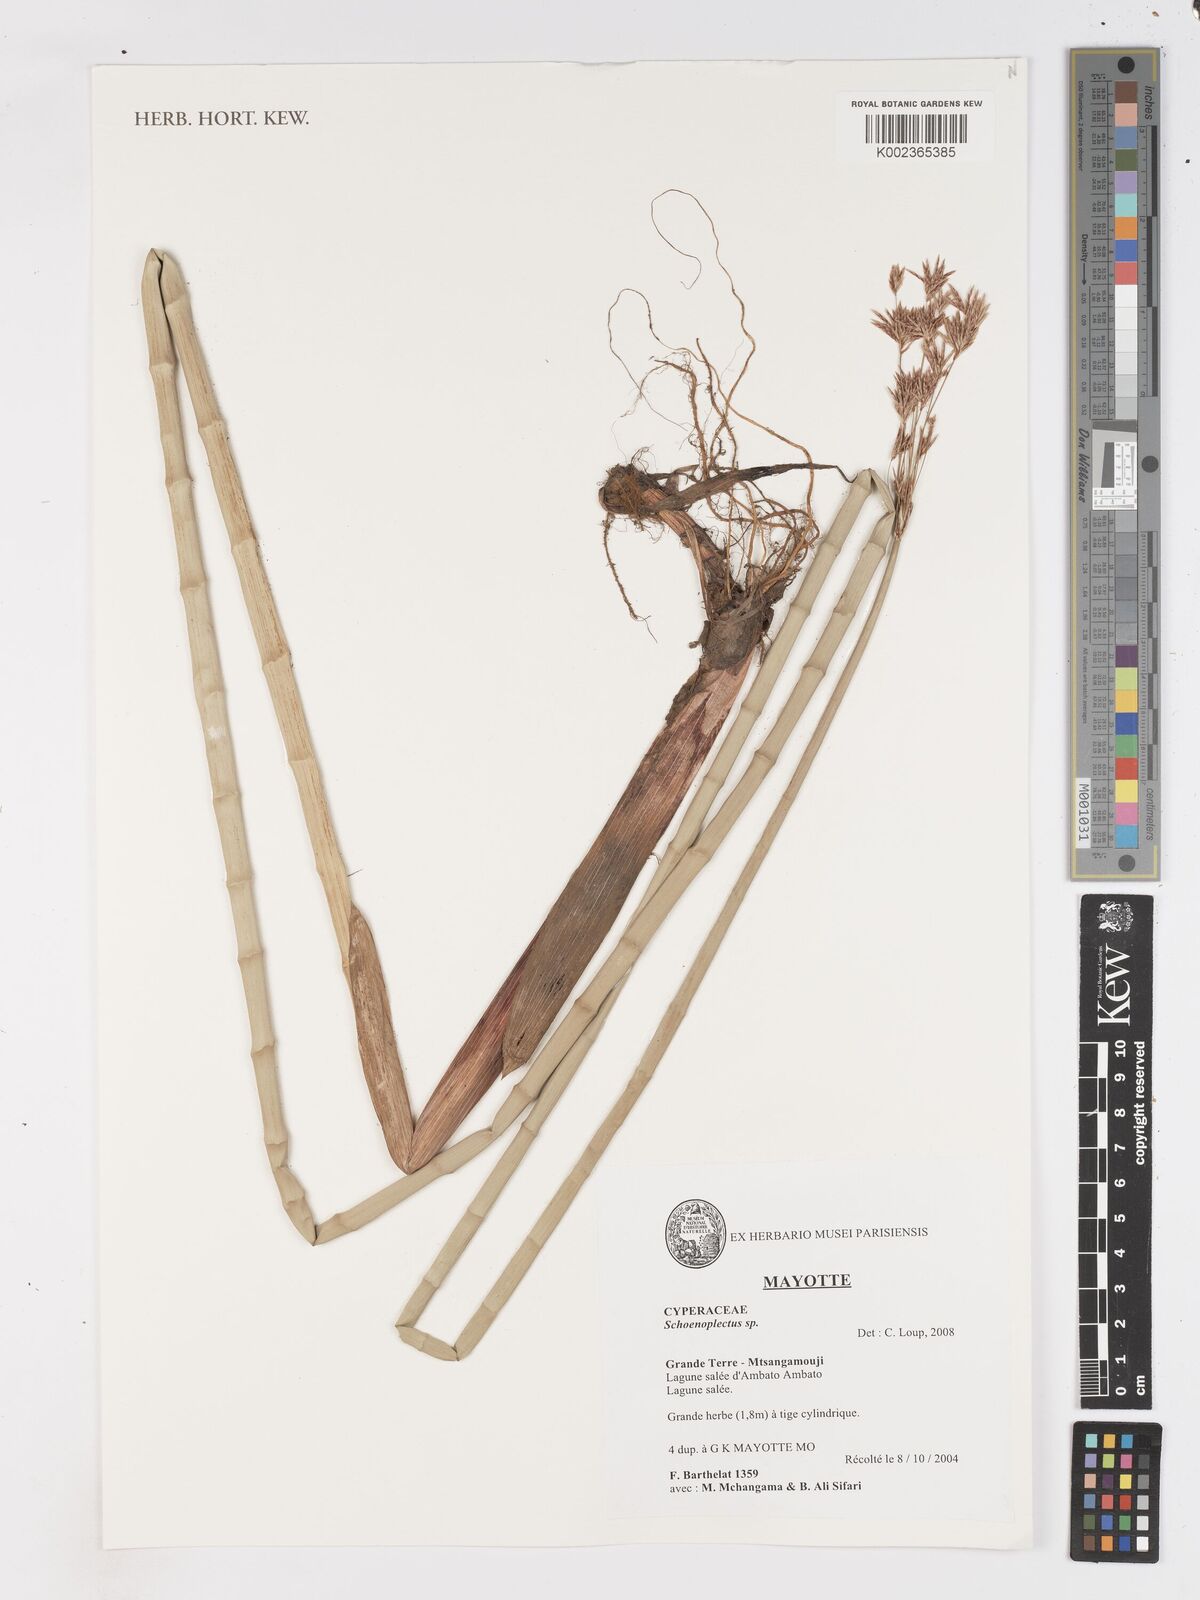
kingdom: Plantae
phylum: Tracheophyta
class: Liliopsida
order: Poales
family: Cyperaceae
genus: Schoenoplectus
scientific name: Schoenoplectus
